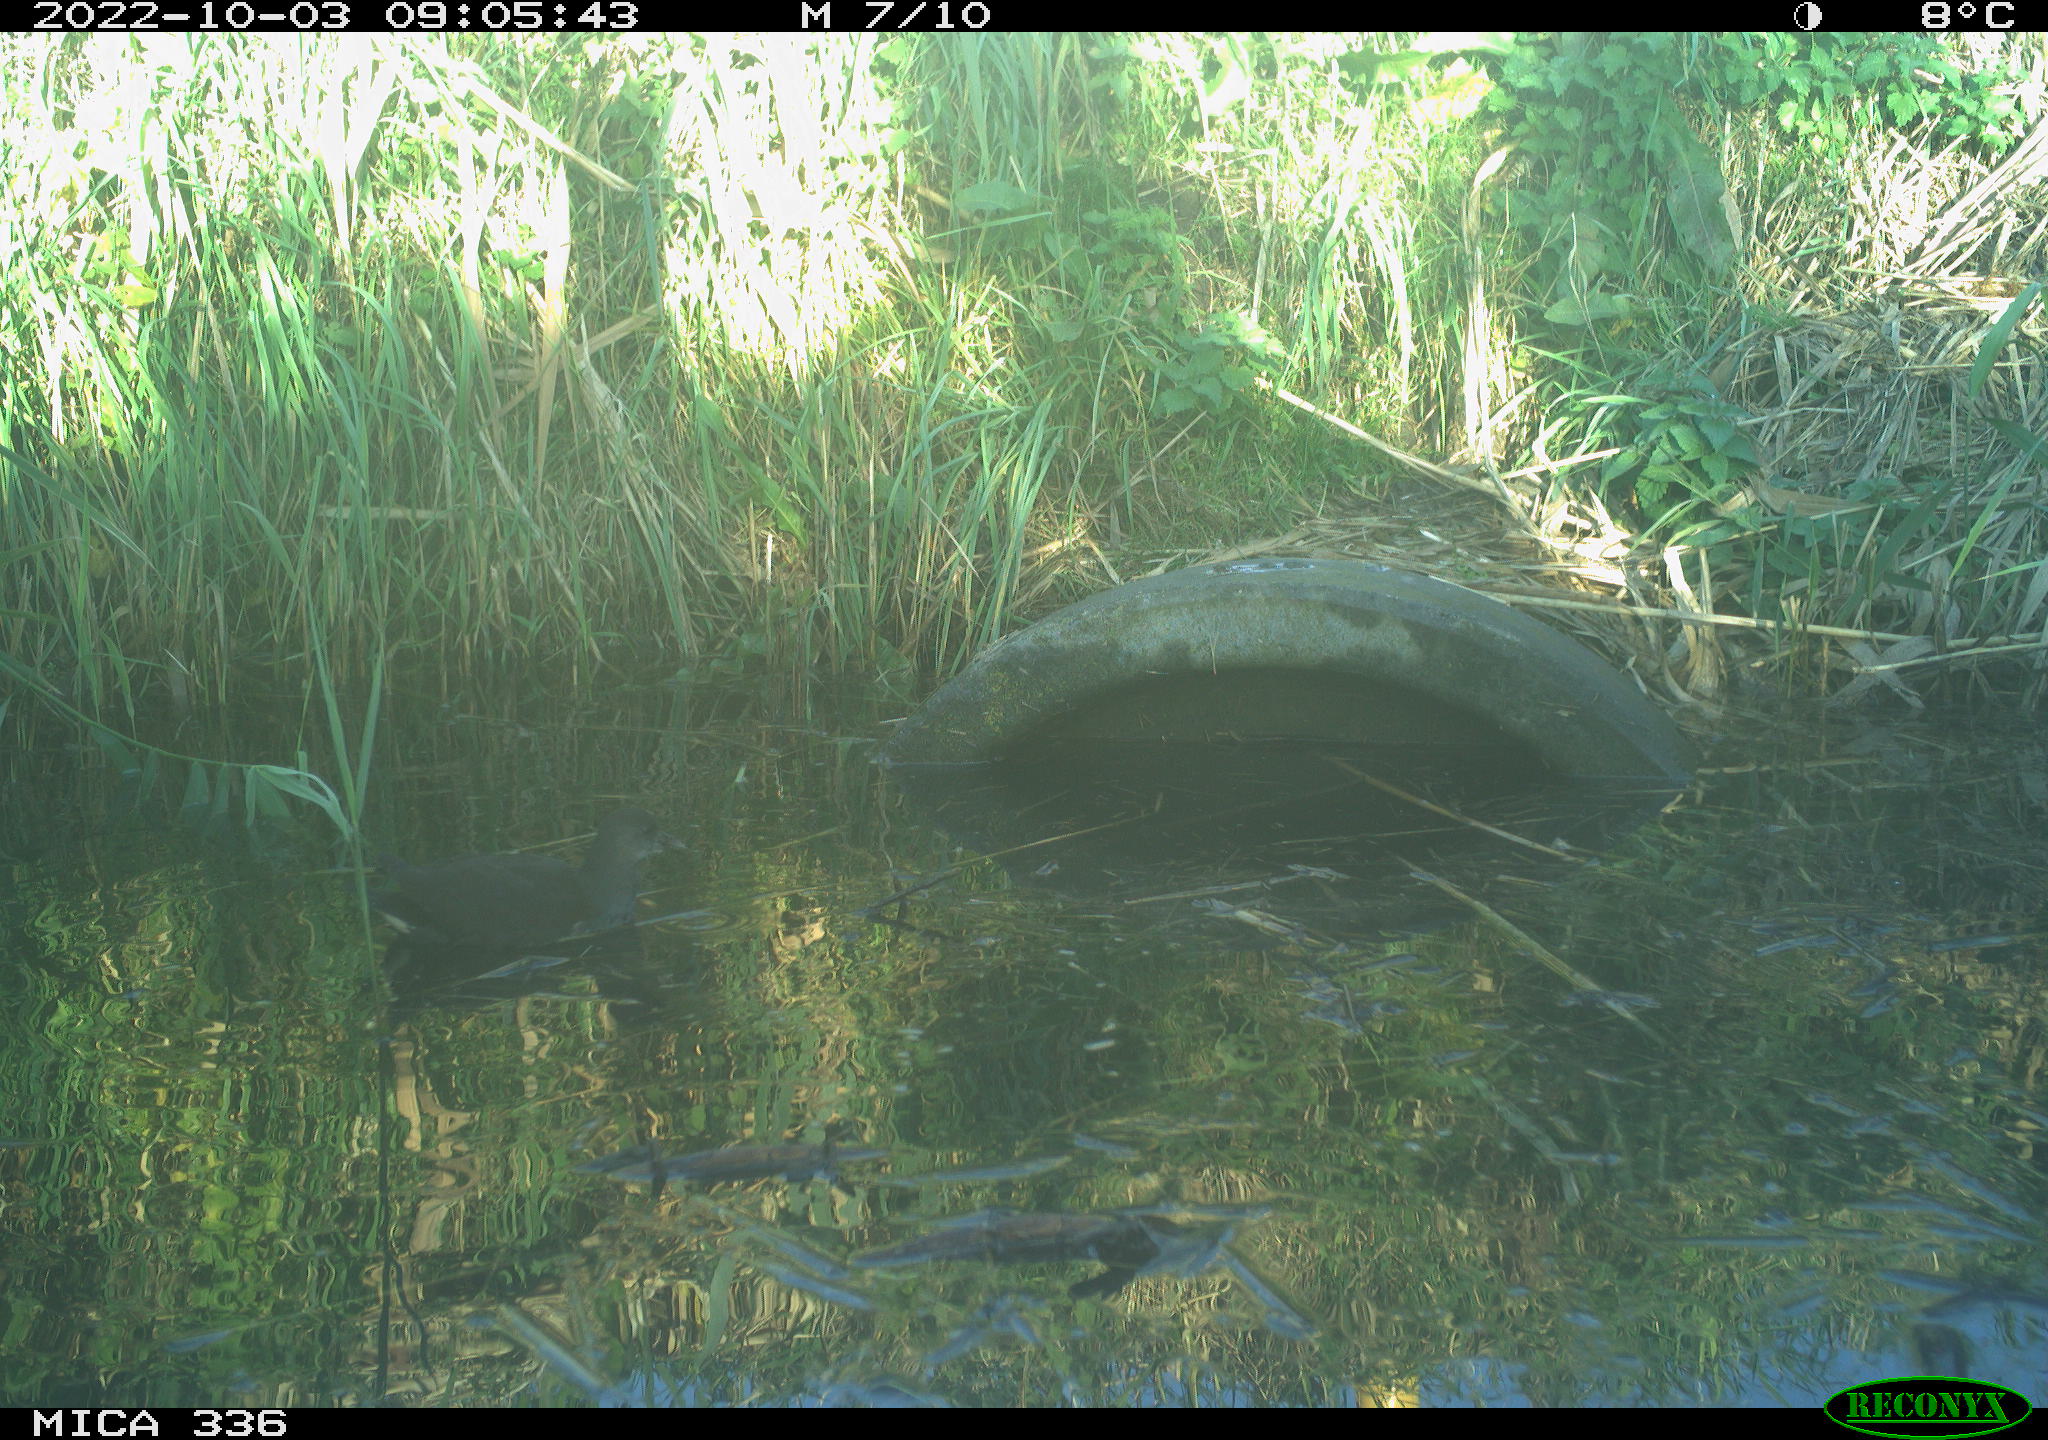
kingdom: Animalia
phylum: Chordata
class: Aves
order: Gruiformes
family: Rallidae
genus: Gallinula
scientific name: Gallinula chloropus
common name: Common moorhen
